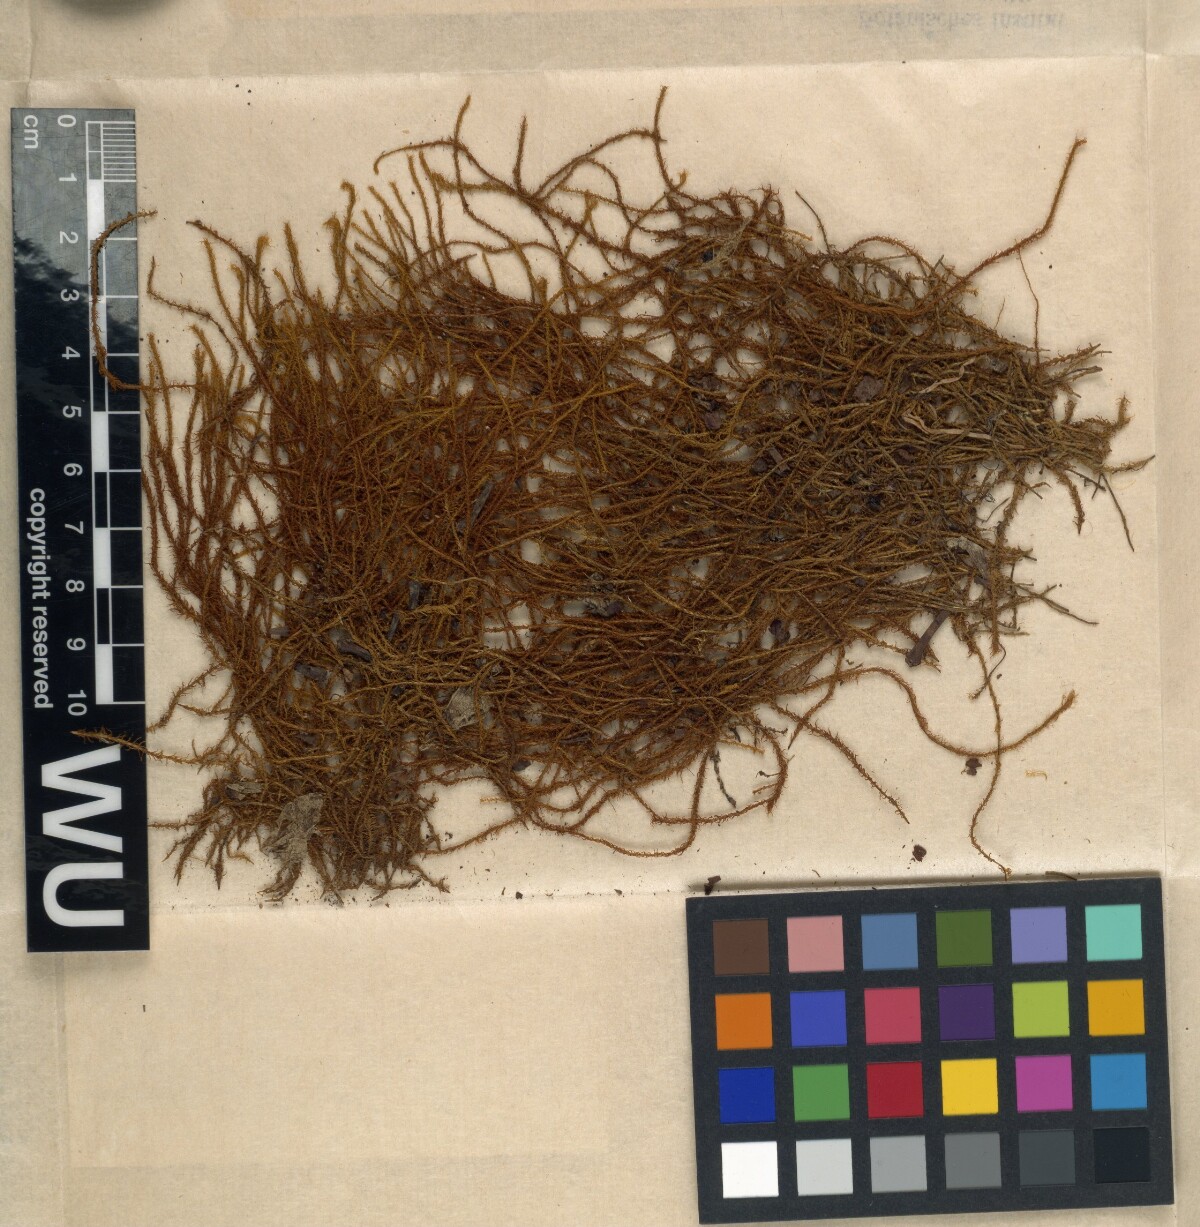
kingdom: Plantae
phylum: Bryophyta
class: Bryopsida
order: Pottiales
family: Pottiaceae
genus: Leptodontium
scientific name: Leptodontium wallisii
